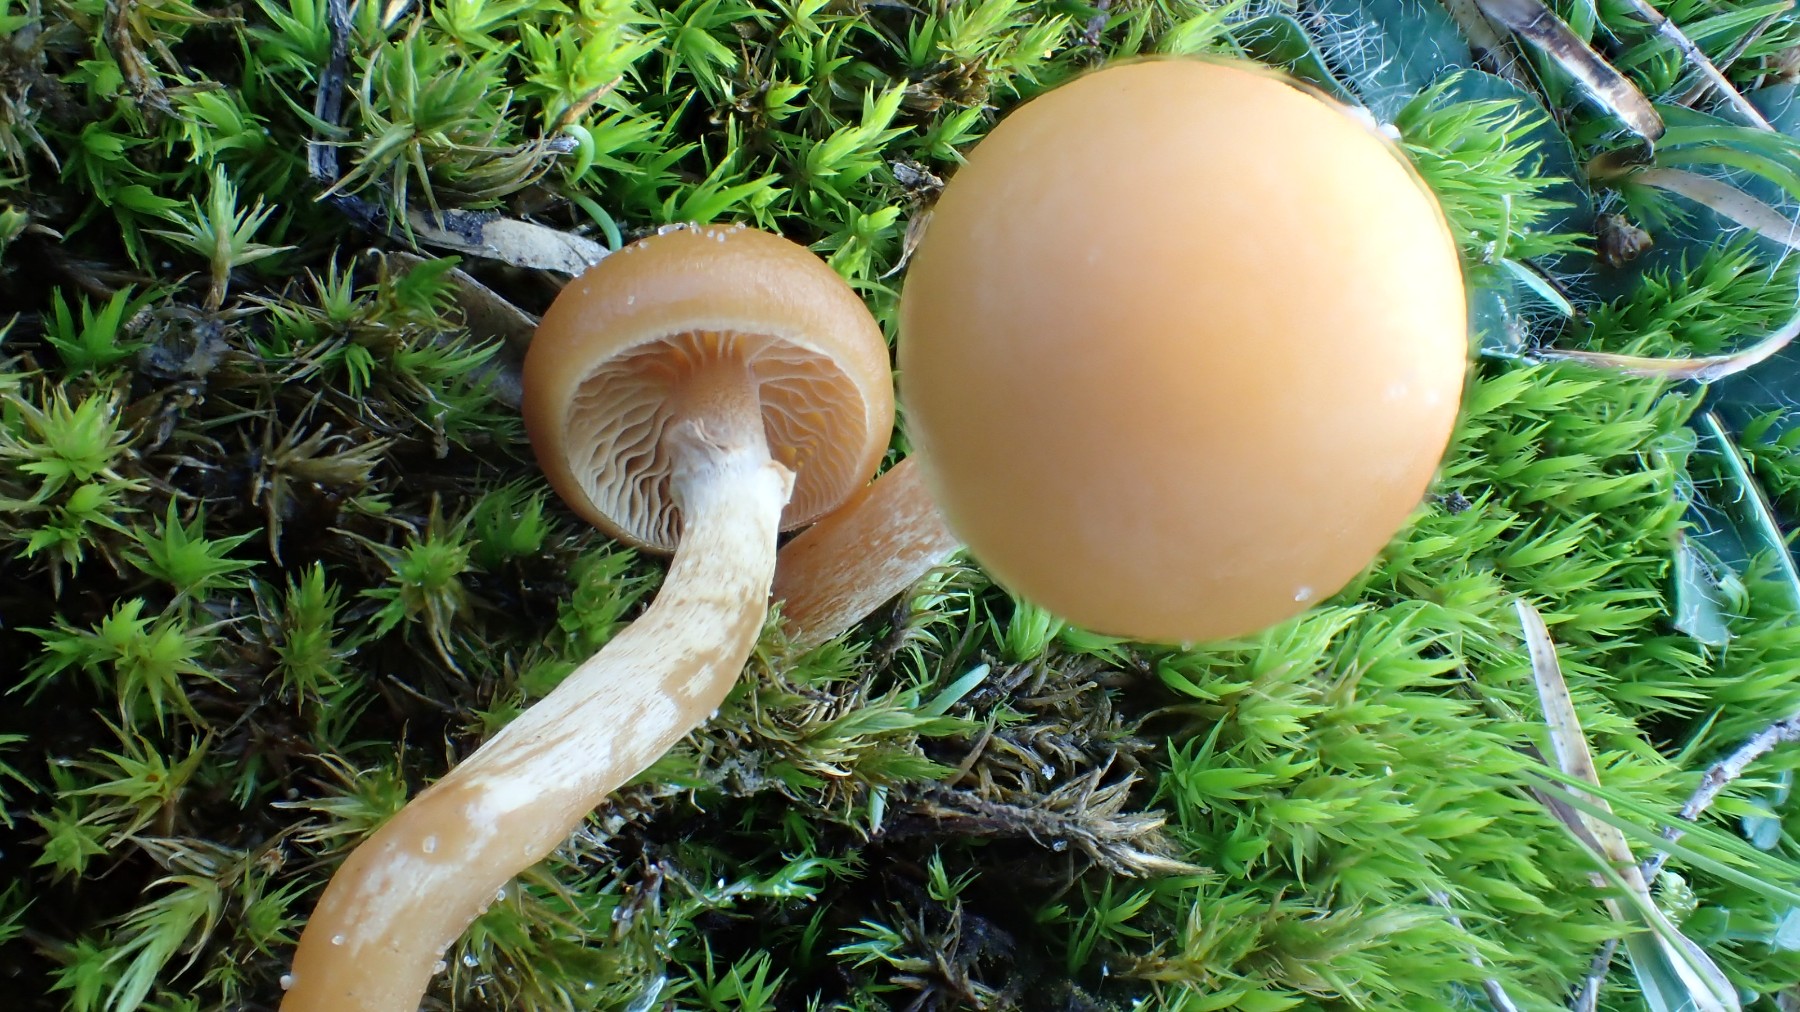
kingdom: Fungi
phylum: Basidiomycota
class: Agaricomycetes
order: Agaricales
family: Hymenogastraceae
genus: Galerina
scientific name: Galerina marginata
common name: randbæltet hjelmhat
